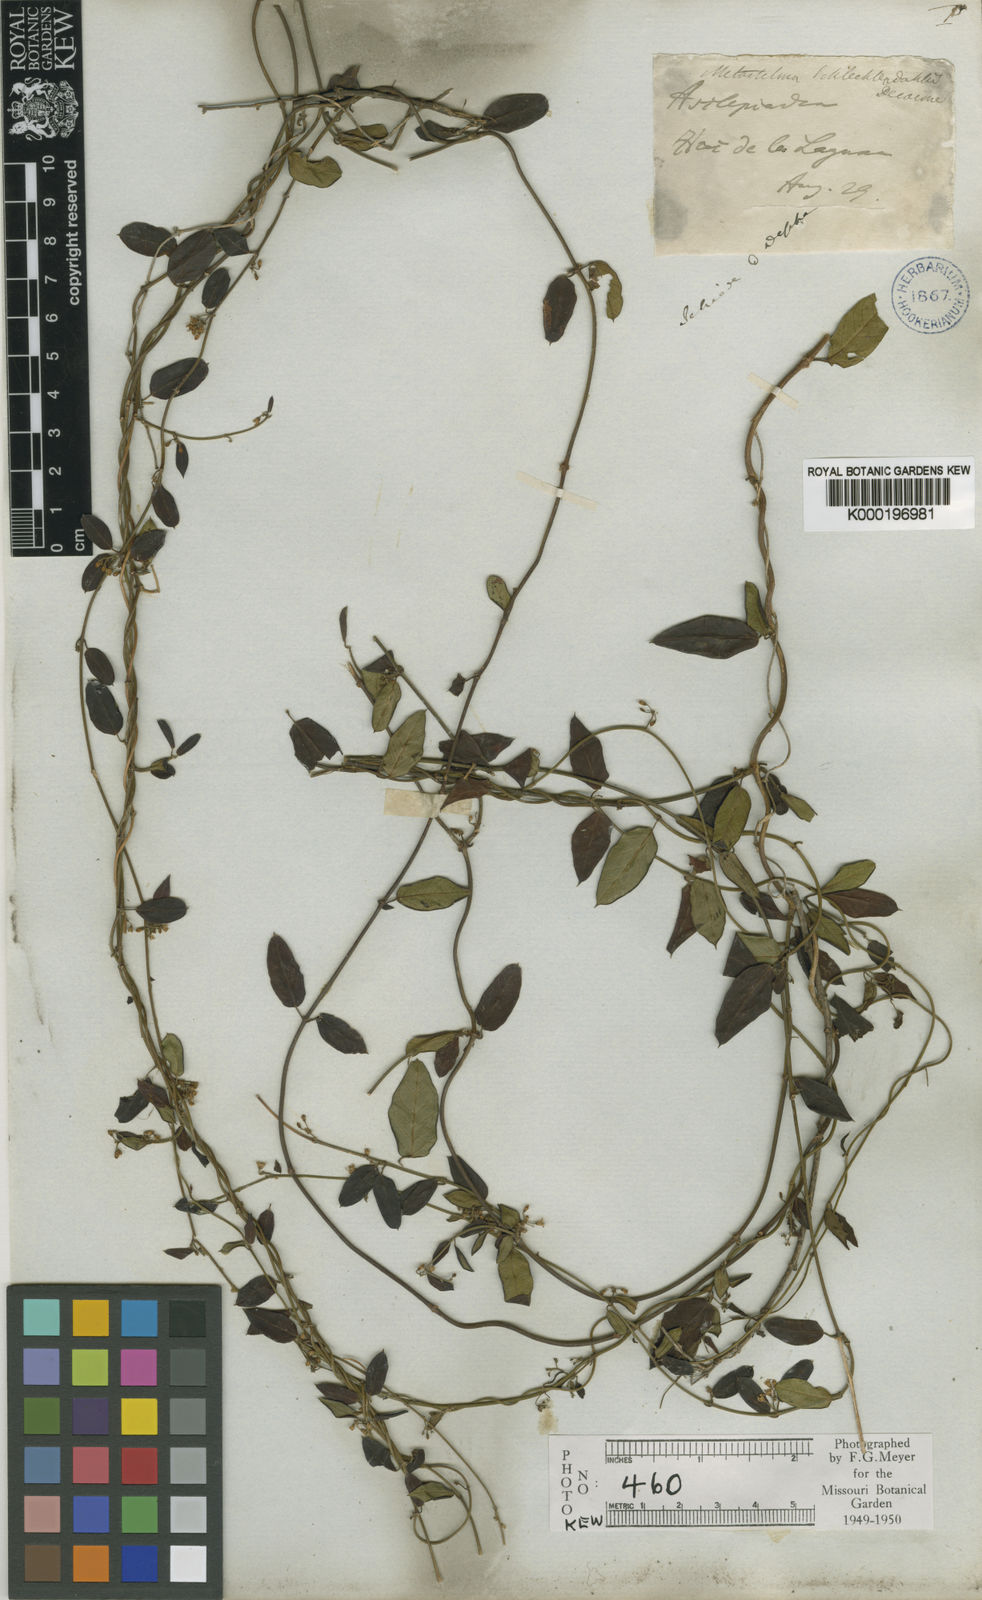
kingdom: Plantae
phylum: Tracheophyta
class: Magnoliopsida
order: Gentianales
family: Apocynaceae
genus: Metastelma
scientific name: Metastelma schlechtendalii
